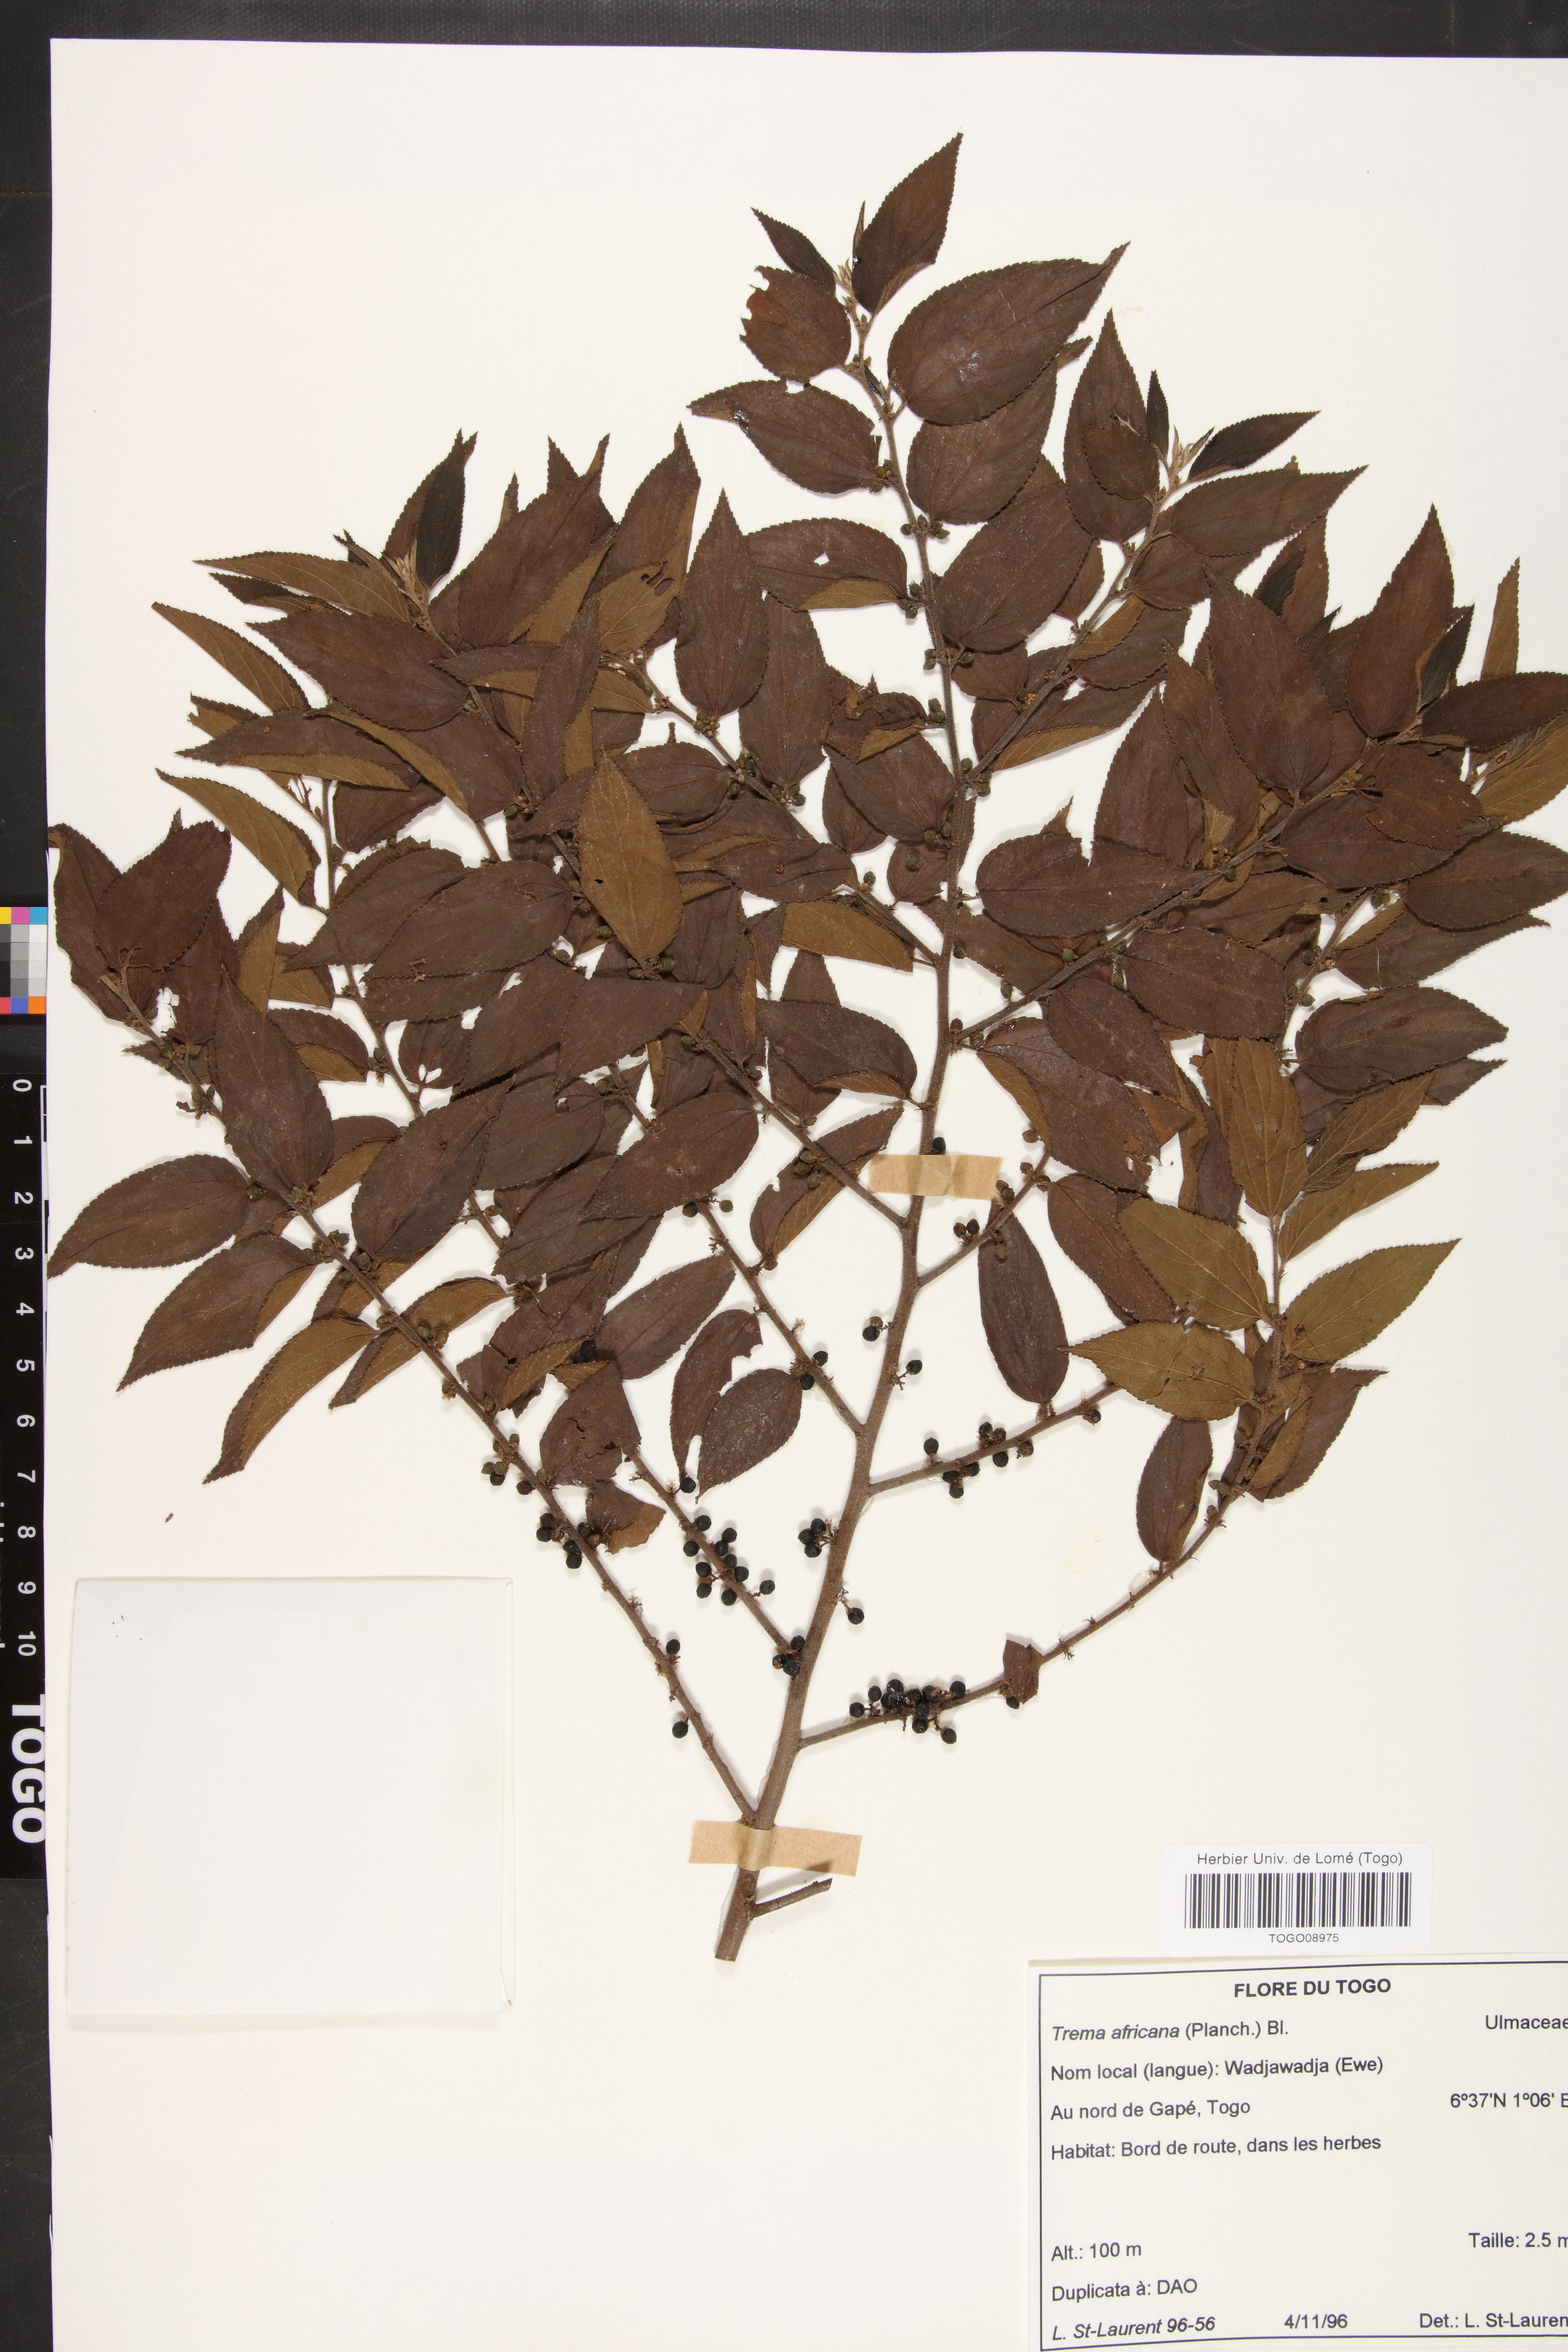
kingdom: Plantae
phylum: Tracheophyta
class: Magnoliopsida
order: Rosales
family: Cannabaceae
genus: Trema
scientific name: Trema orientale
